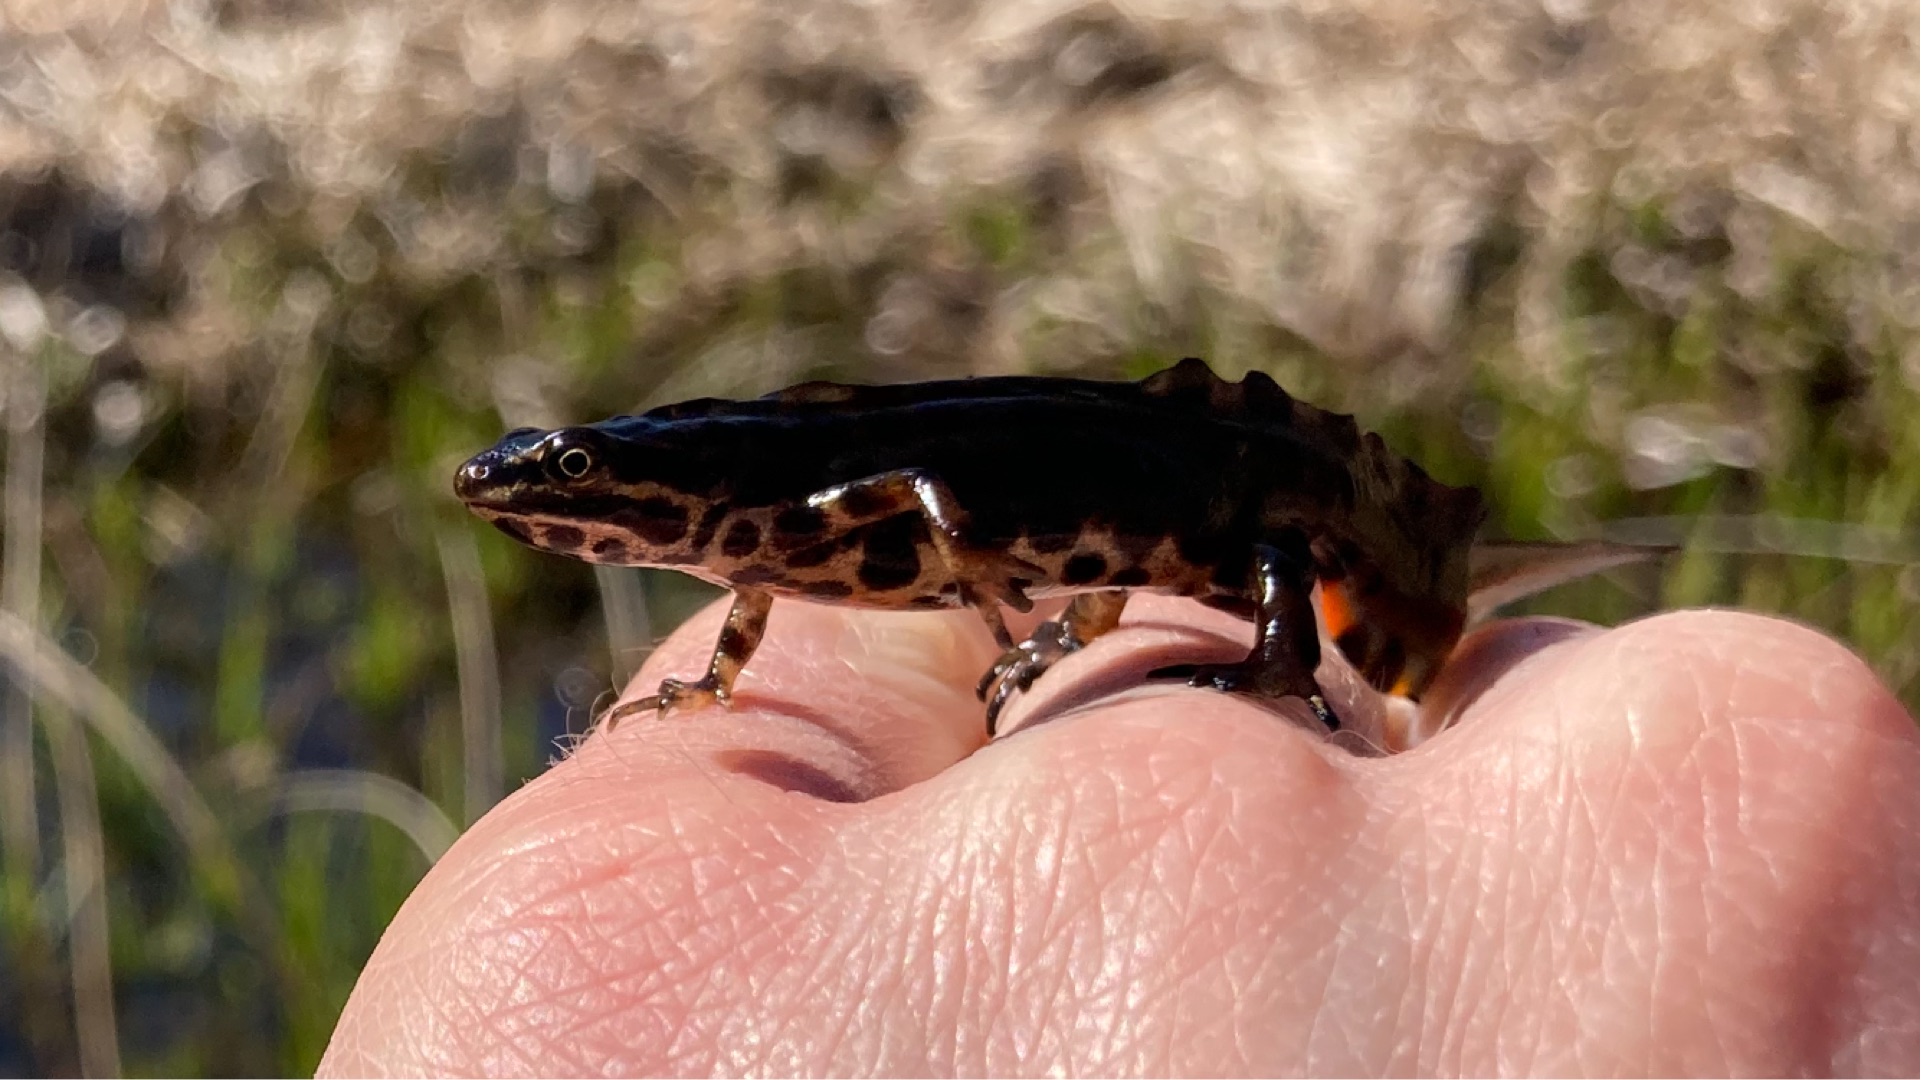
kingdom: Animalia
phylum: Chordata
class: Amphibia
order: Caudata
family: Salamandridae
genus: Lissotriton
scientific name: Lissotriton vulgaris
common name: Lille vandsalamander
